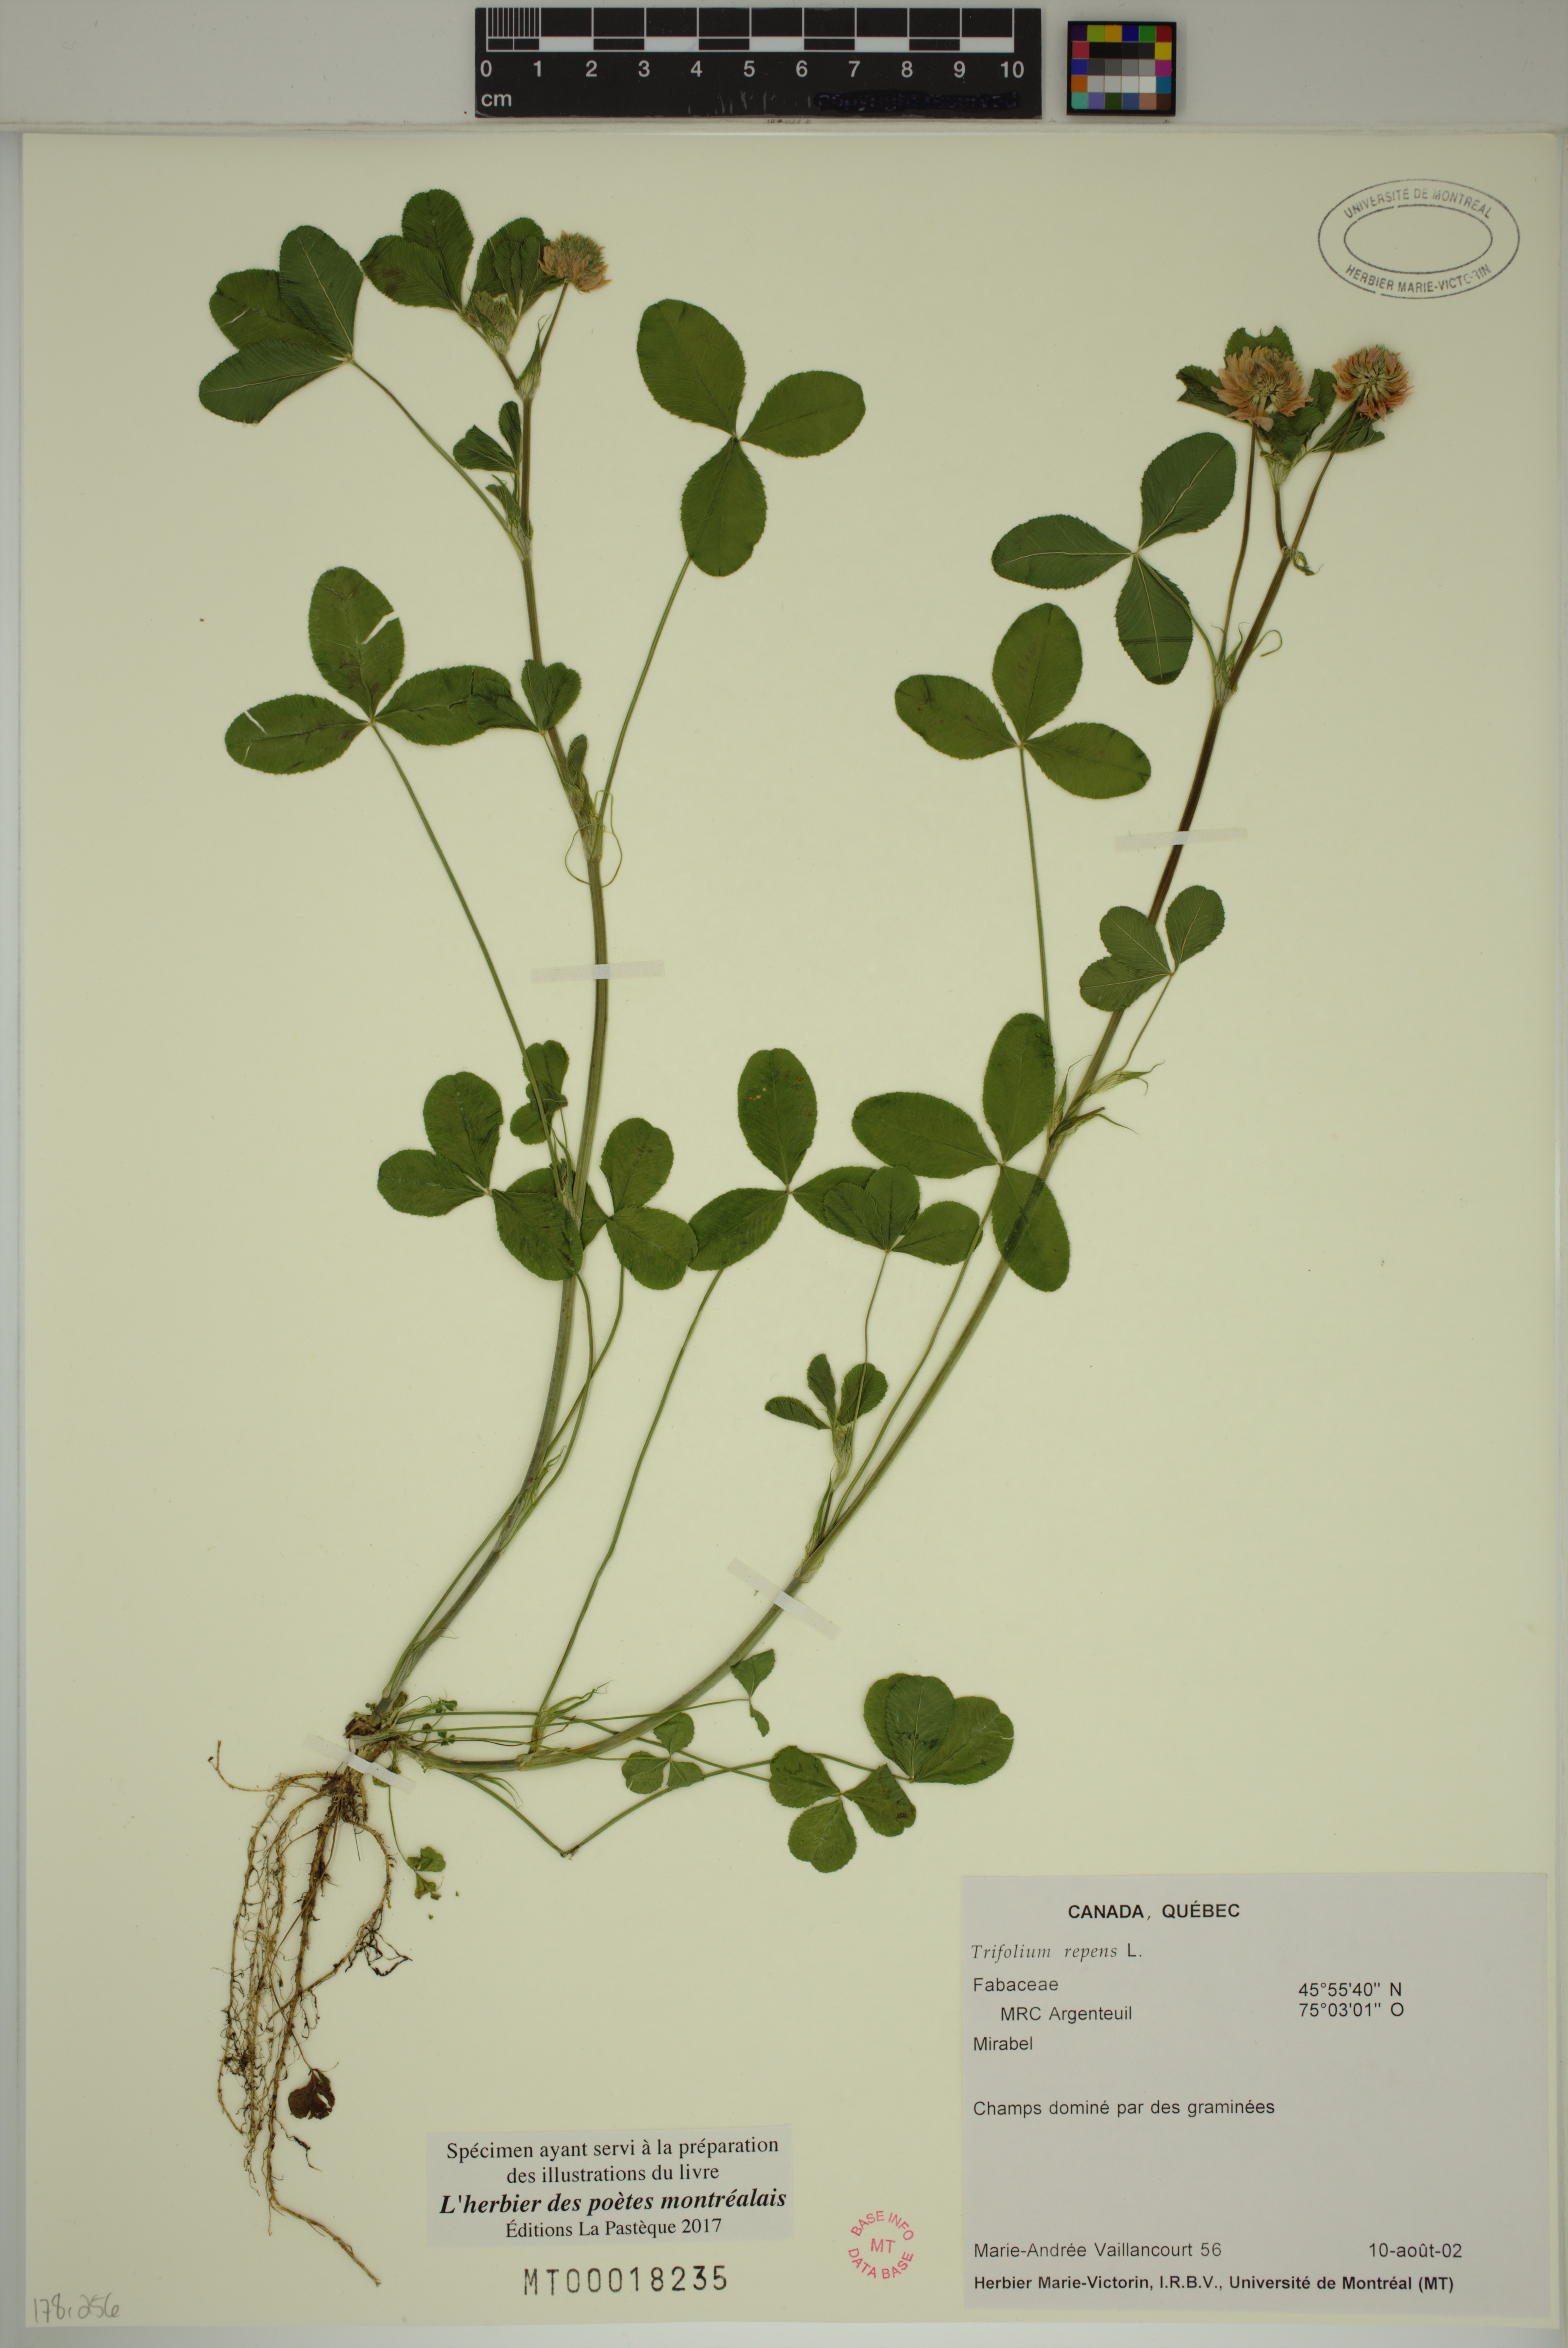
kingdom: Plantae
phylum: Tracheophyta
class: Magnoliopsida
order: Fabales
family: Fabaceae
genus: Trifolium
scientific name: Trifolium repens
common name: White clover
